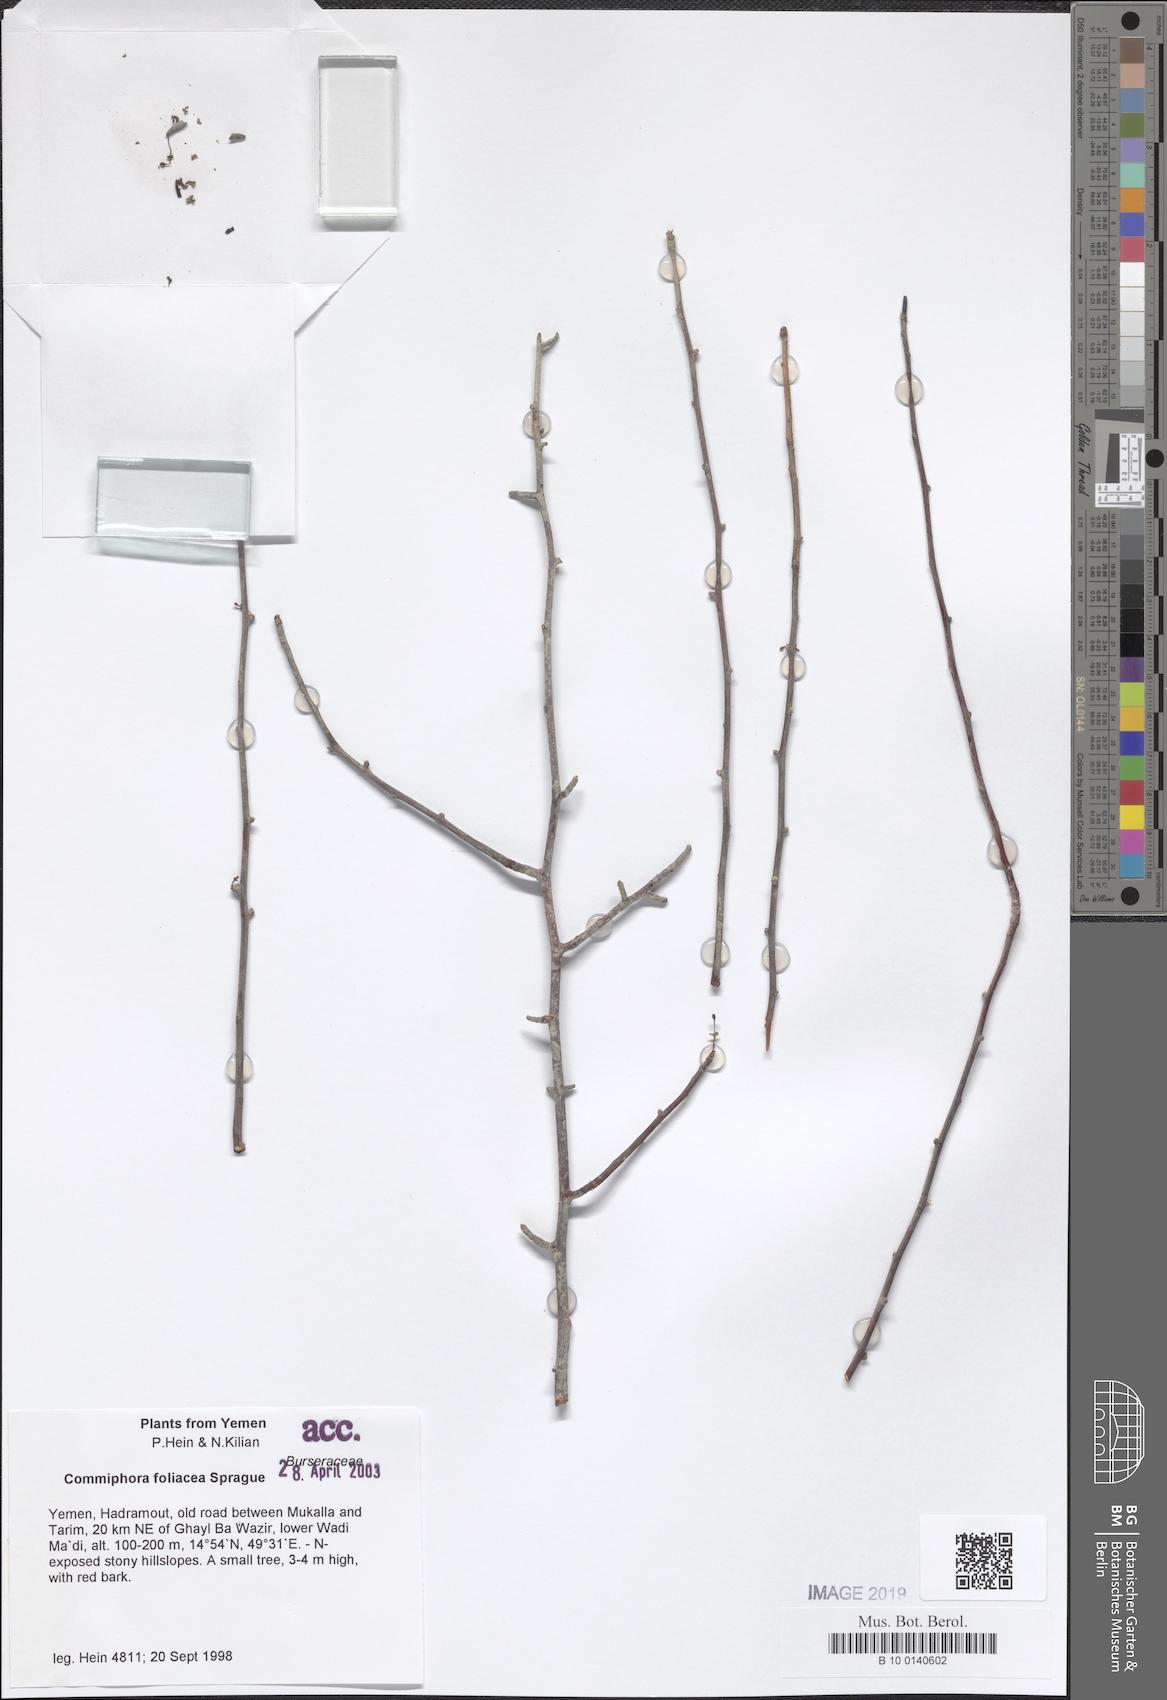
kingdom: Plantae
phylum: Tracheophyta
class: Magnoliopsida
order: Sapindales
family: Burseraceae
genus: Commiphora
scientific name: Commiphora foliacea
